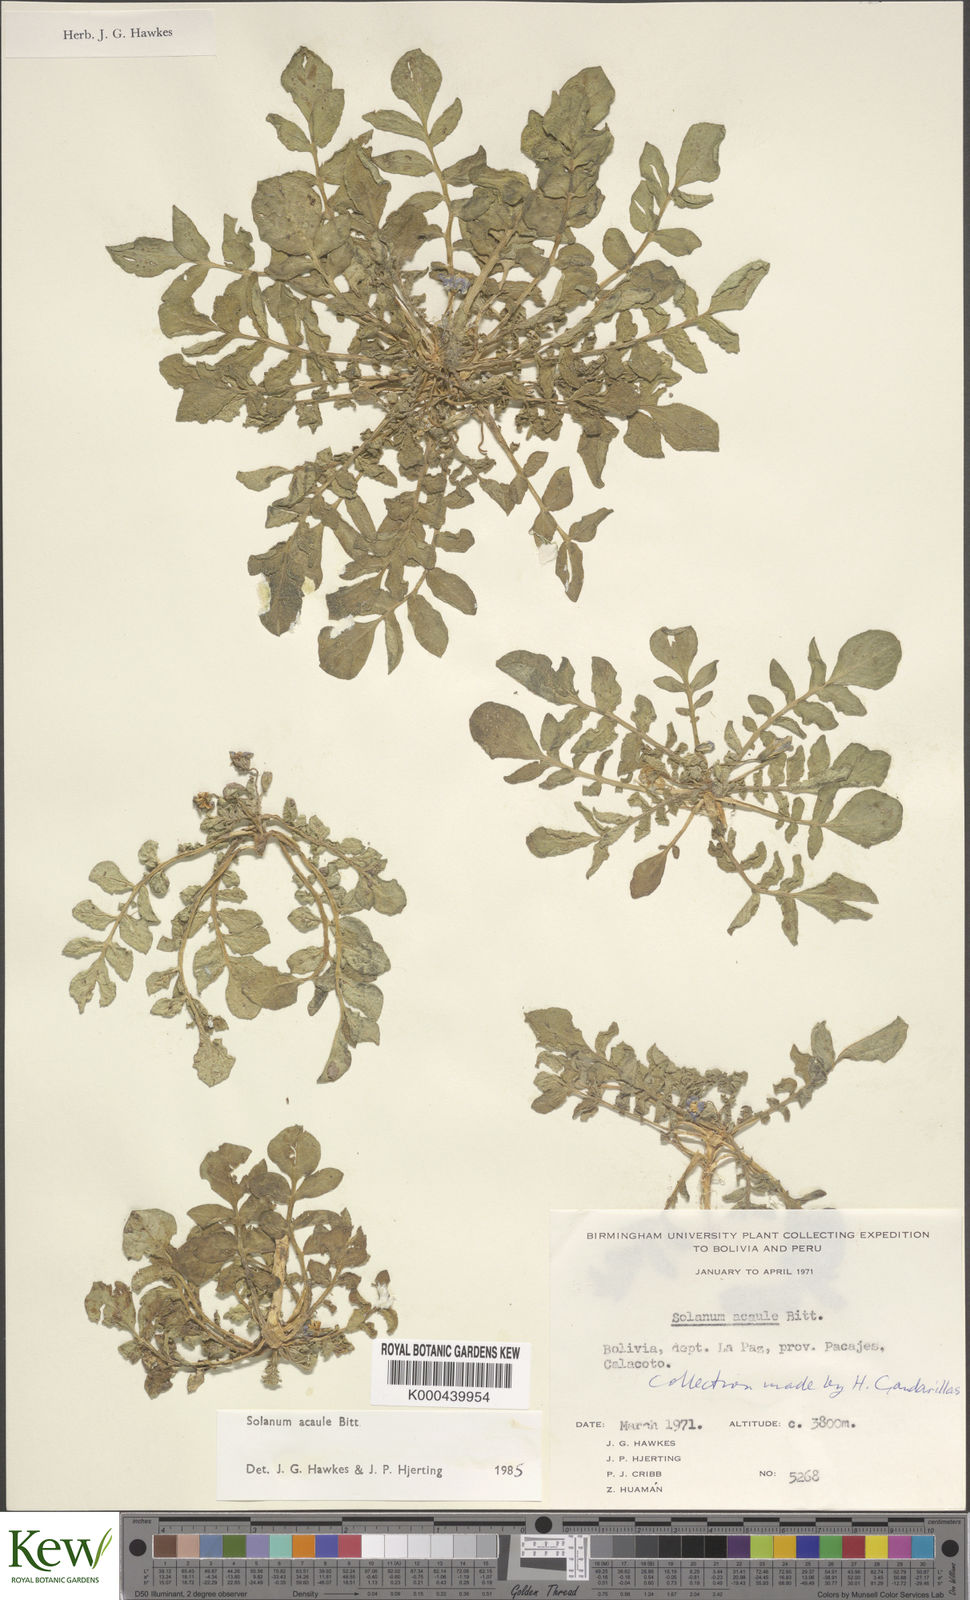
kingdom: Plantae
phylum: Tracheophyta
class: Magnoliopsida
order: Solanales
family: Solanaceae
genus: Solanum
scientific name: Solanum acaule
